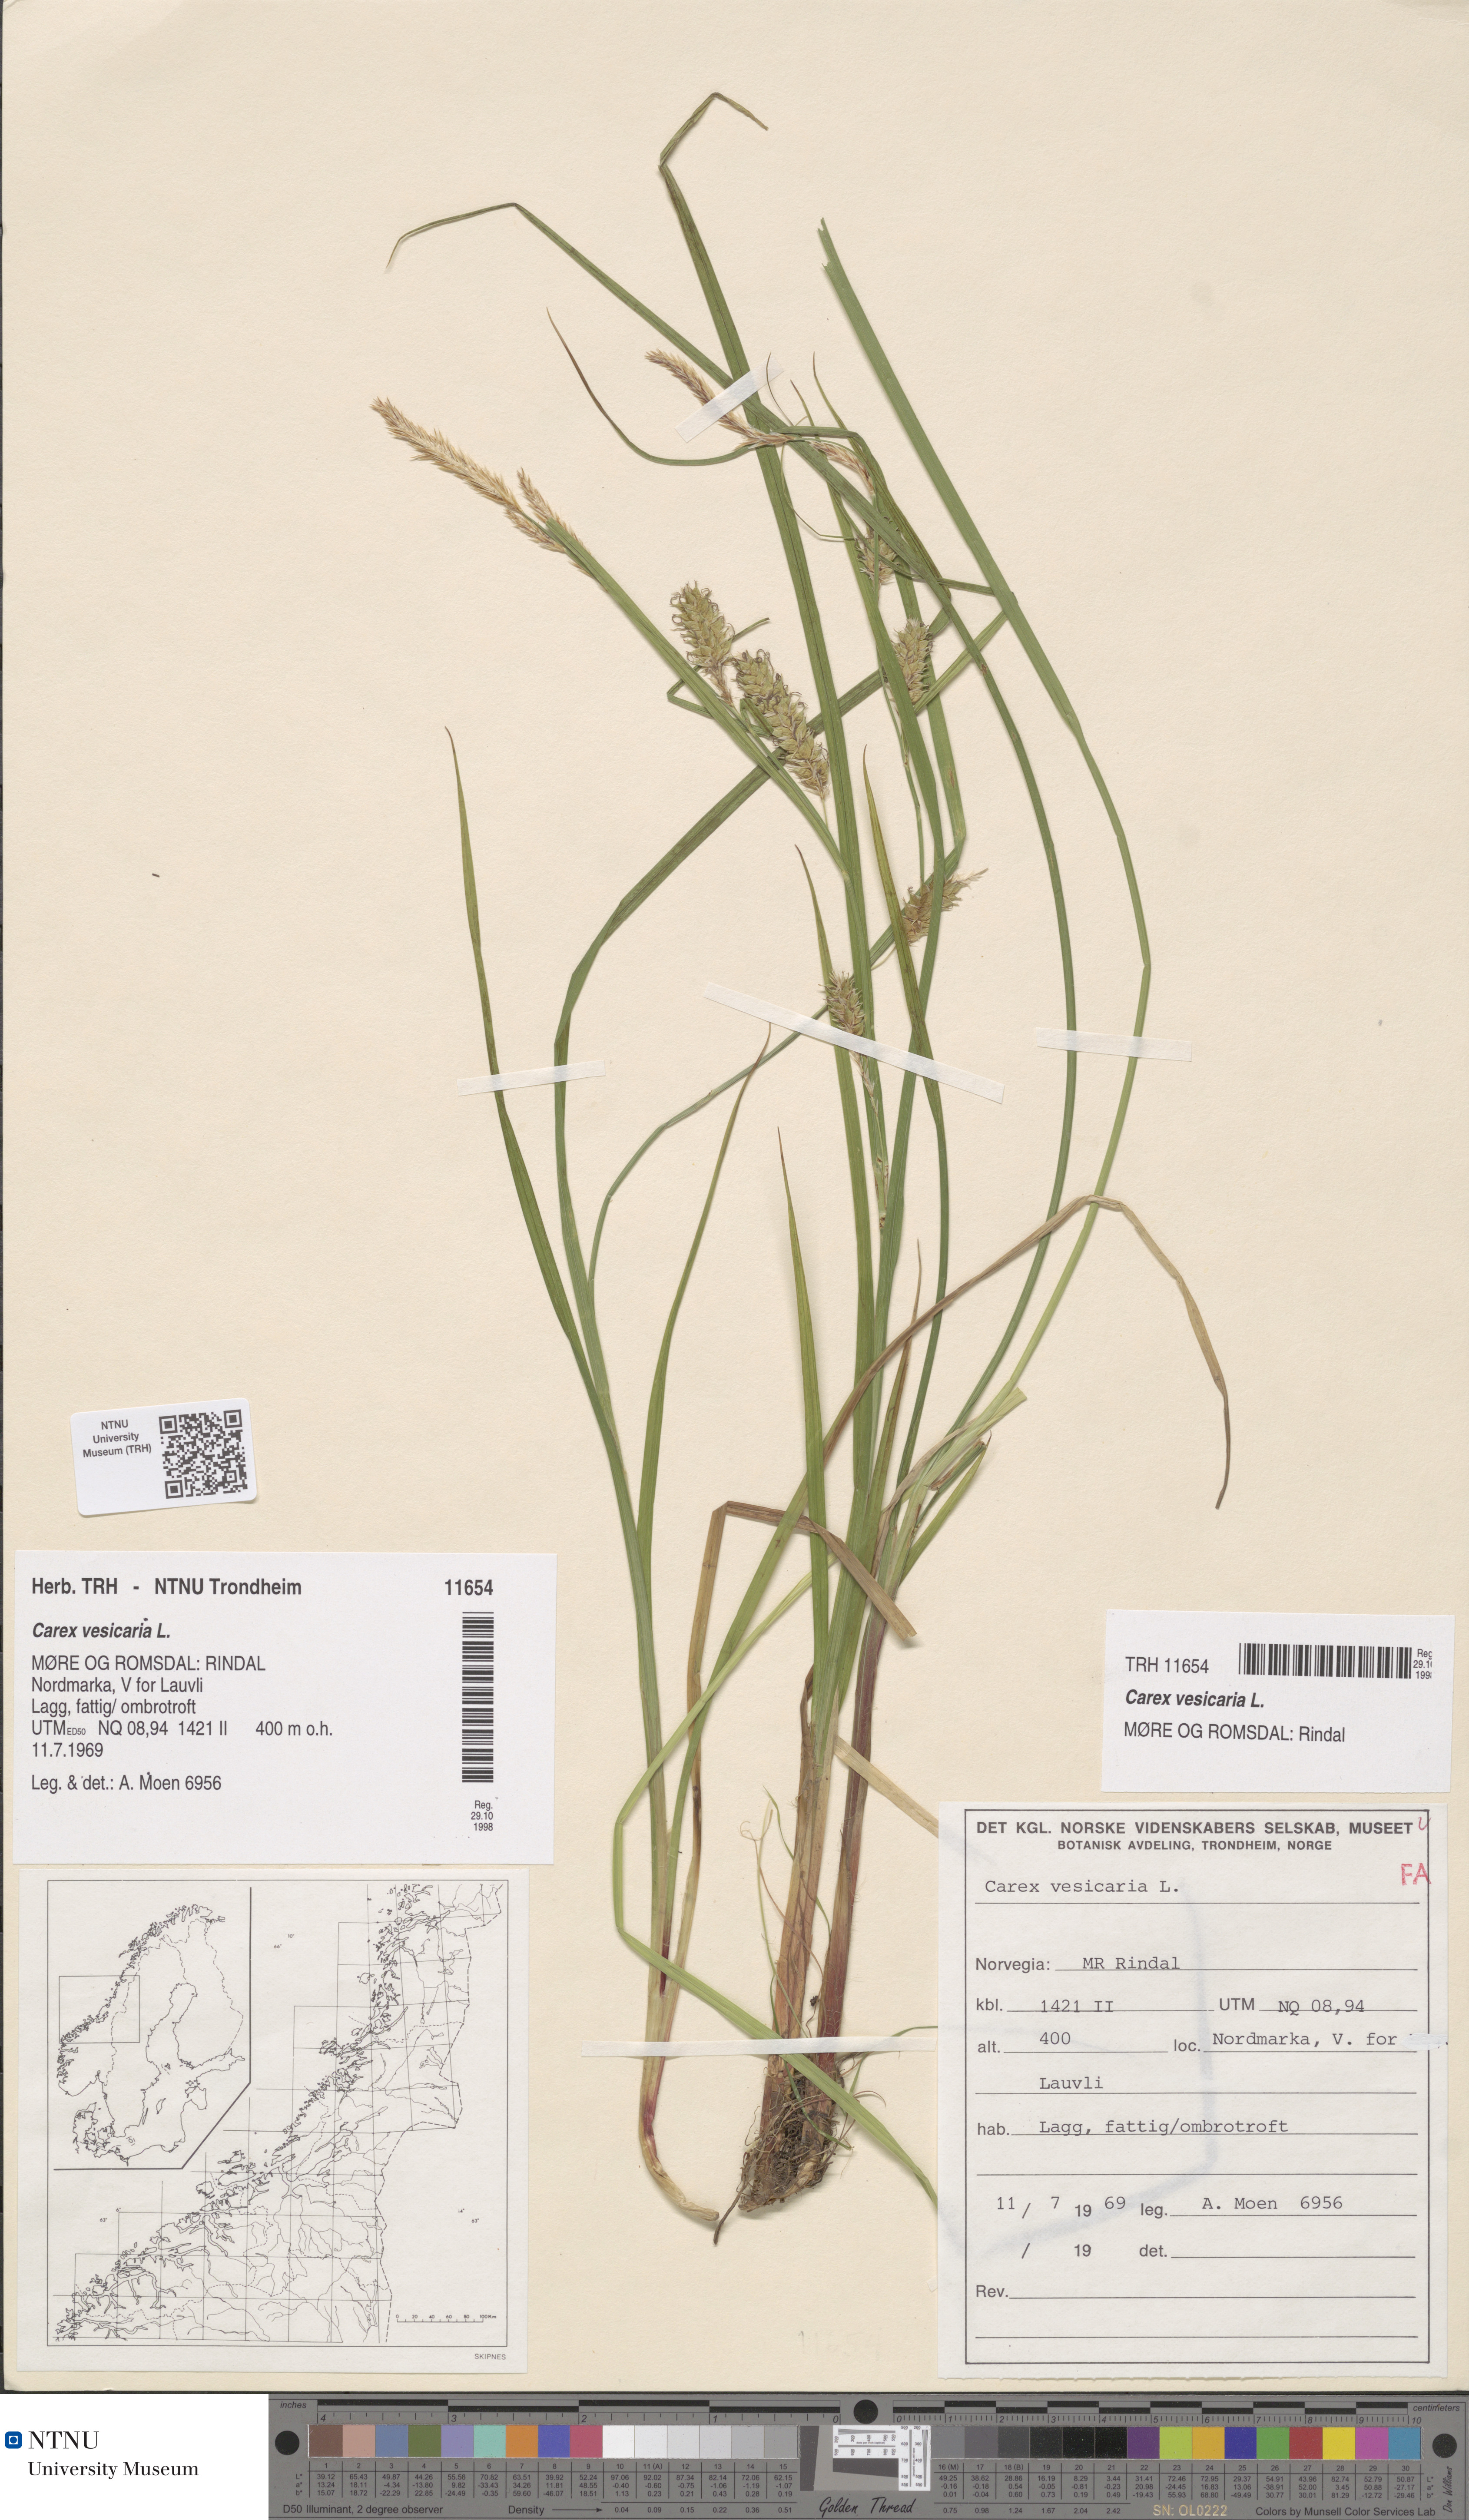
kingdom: Plantae
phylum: Tracheophyta
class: Liliopsida
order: Poales
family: Cyperaceae
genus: Carex
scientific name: Carex vesicaria
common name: Bladder-sedge
